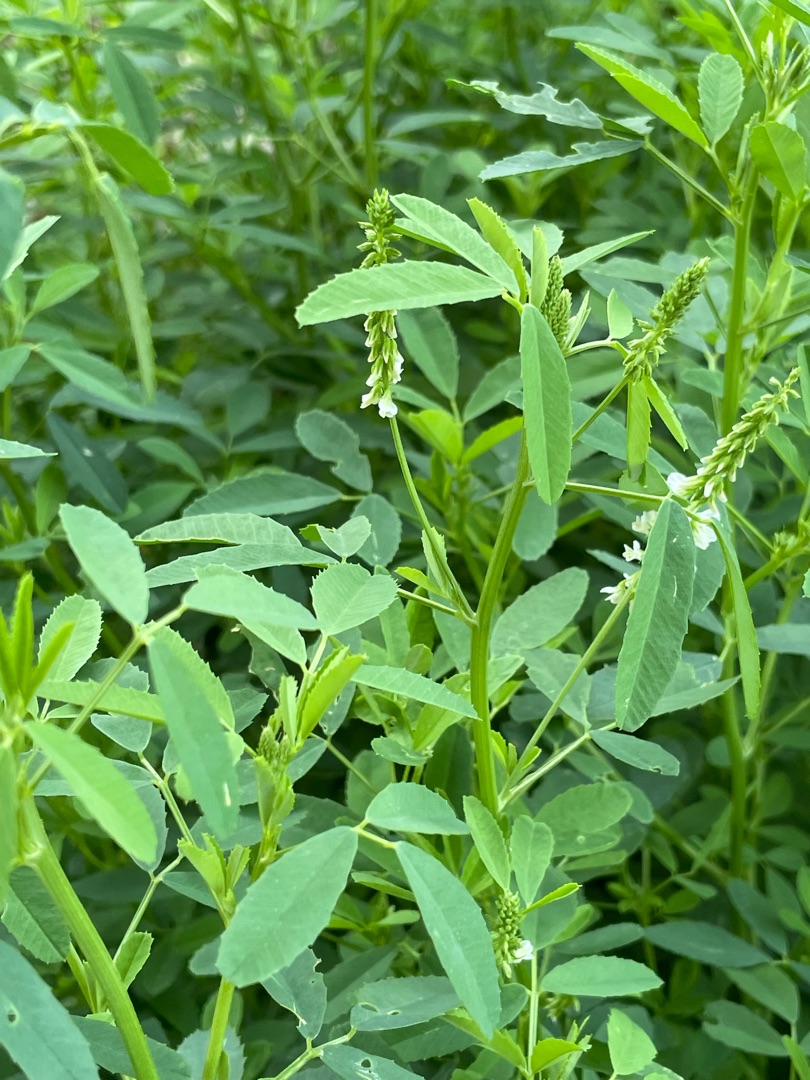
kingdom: Plantae
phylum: Tracheophyta
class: Magnoliopsida
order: Fabales
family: Fabaceae
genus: Melilotus
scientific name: Melilotus albus
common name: Hvid stenkløver
